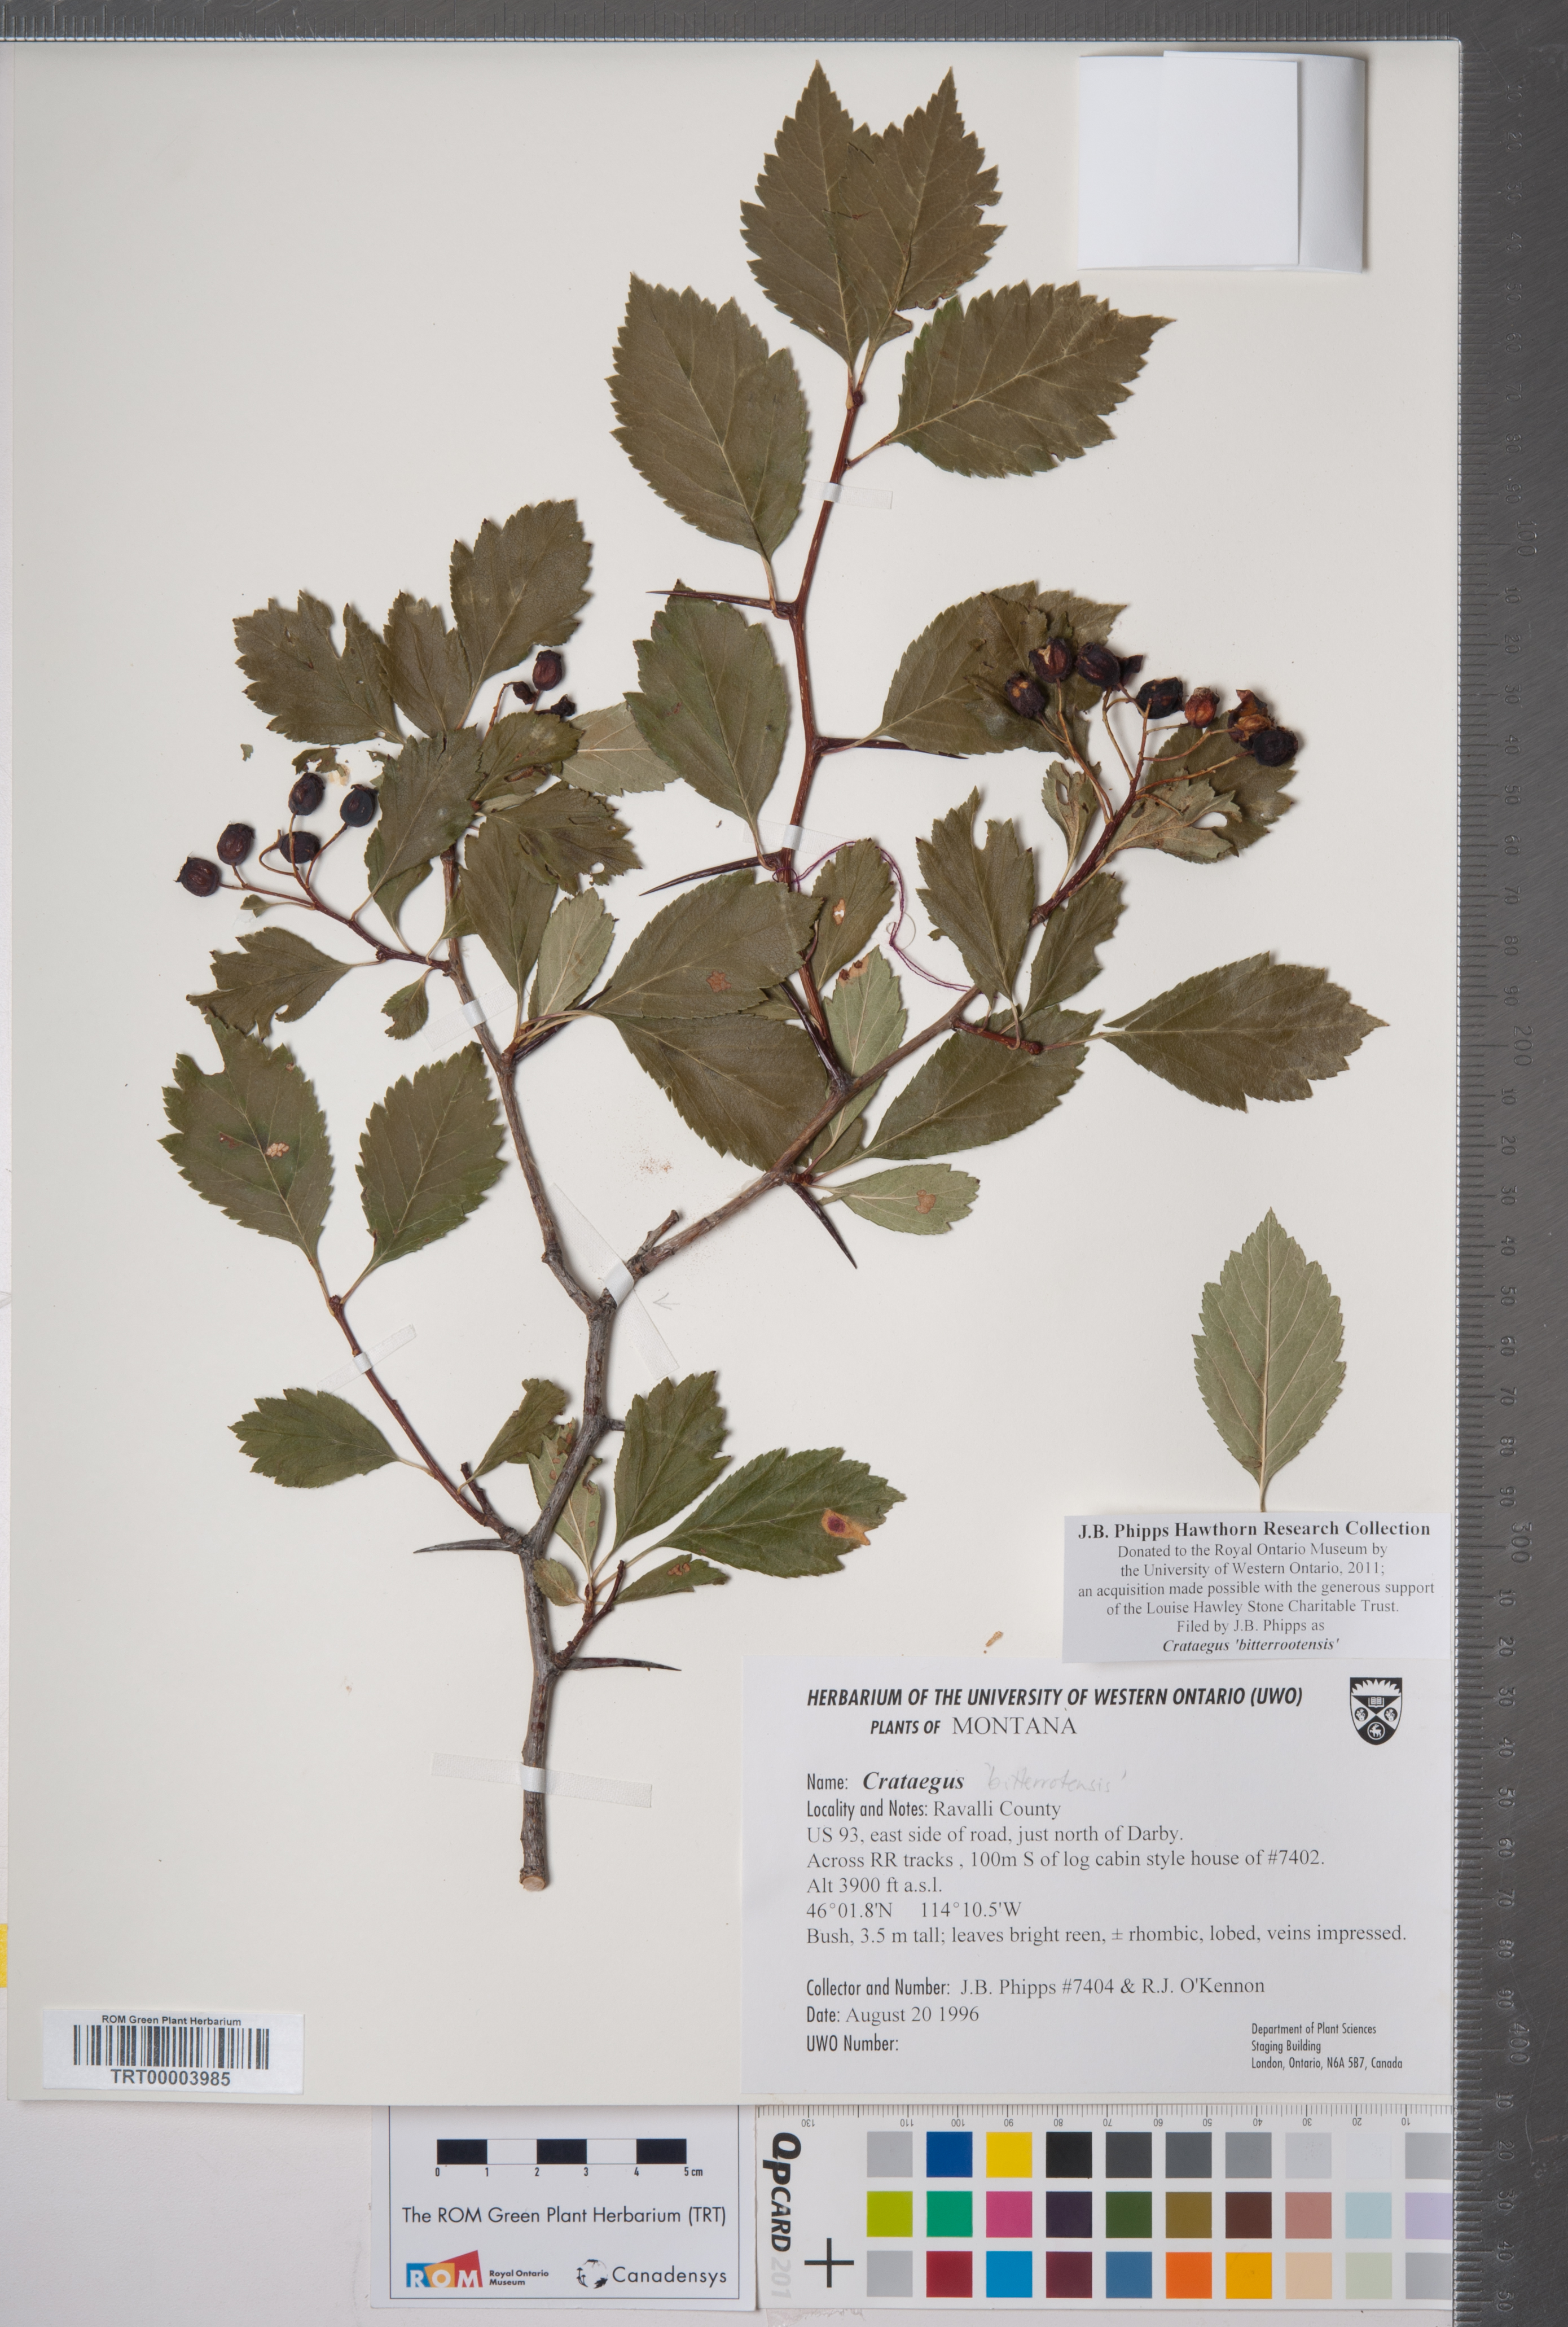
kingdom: Plantae
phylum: Tracheophyta
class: Magnoliopsida
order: Rosales
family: Rosaceae
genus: Crataegus
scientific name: Crataegus douglasii
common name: Black hawthorn
